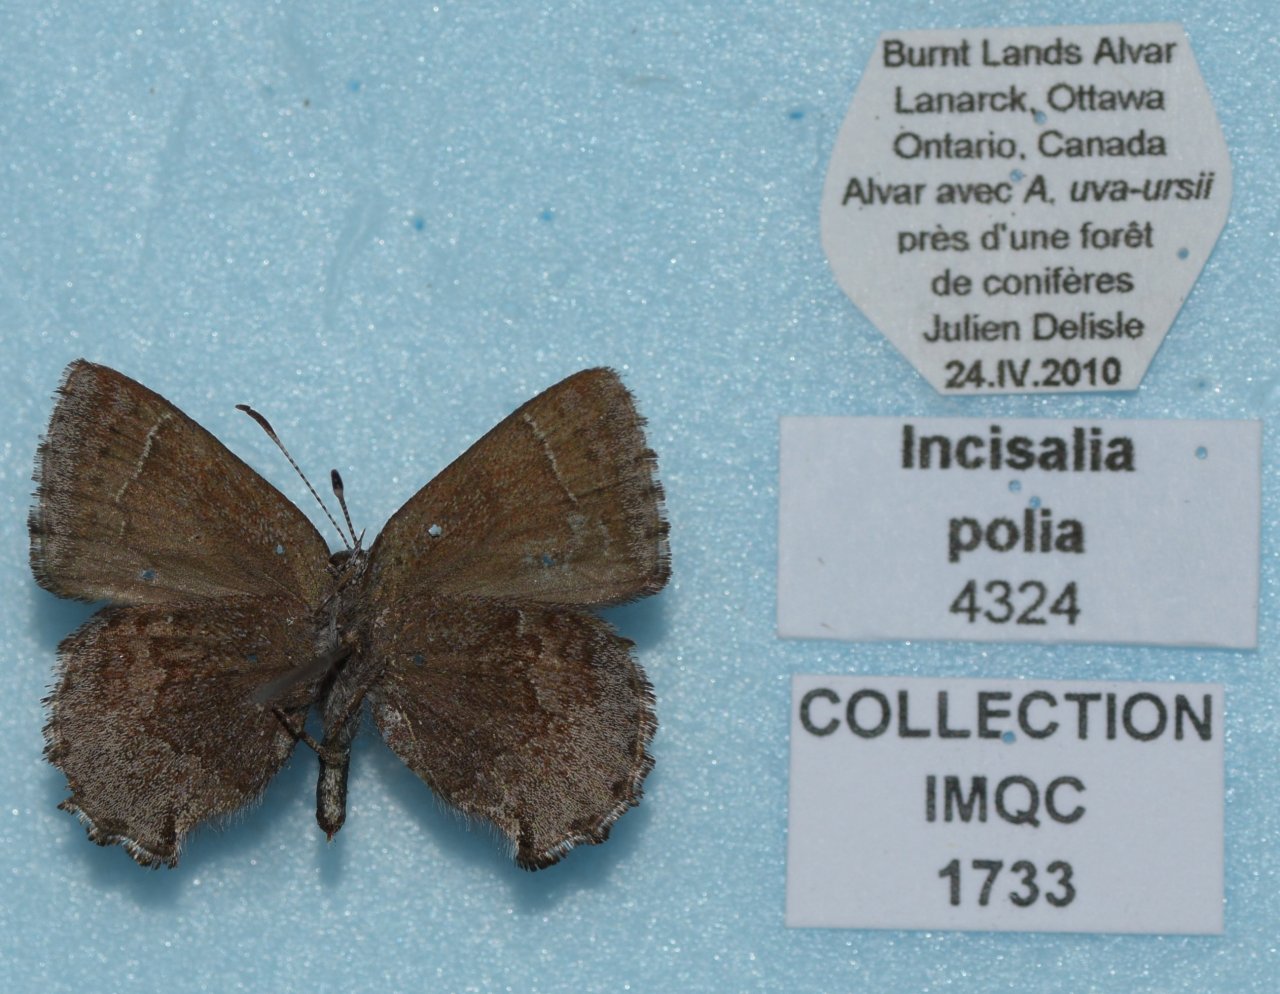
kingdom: Animalia
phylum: Arthropoda
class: Insecta
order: Lepidoptera
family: Lycaenidae
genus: Callophrys
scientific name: Callophrys polios
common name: Hoary Elfin
